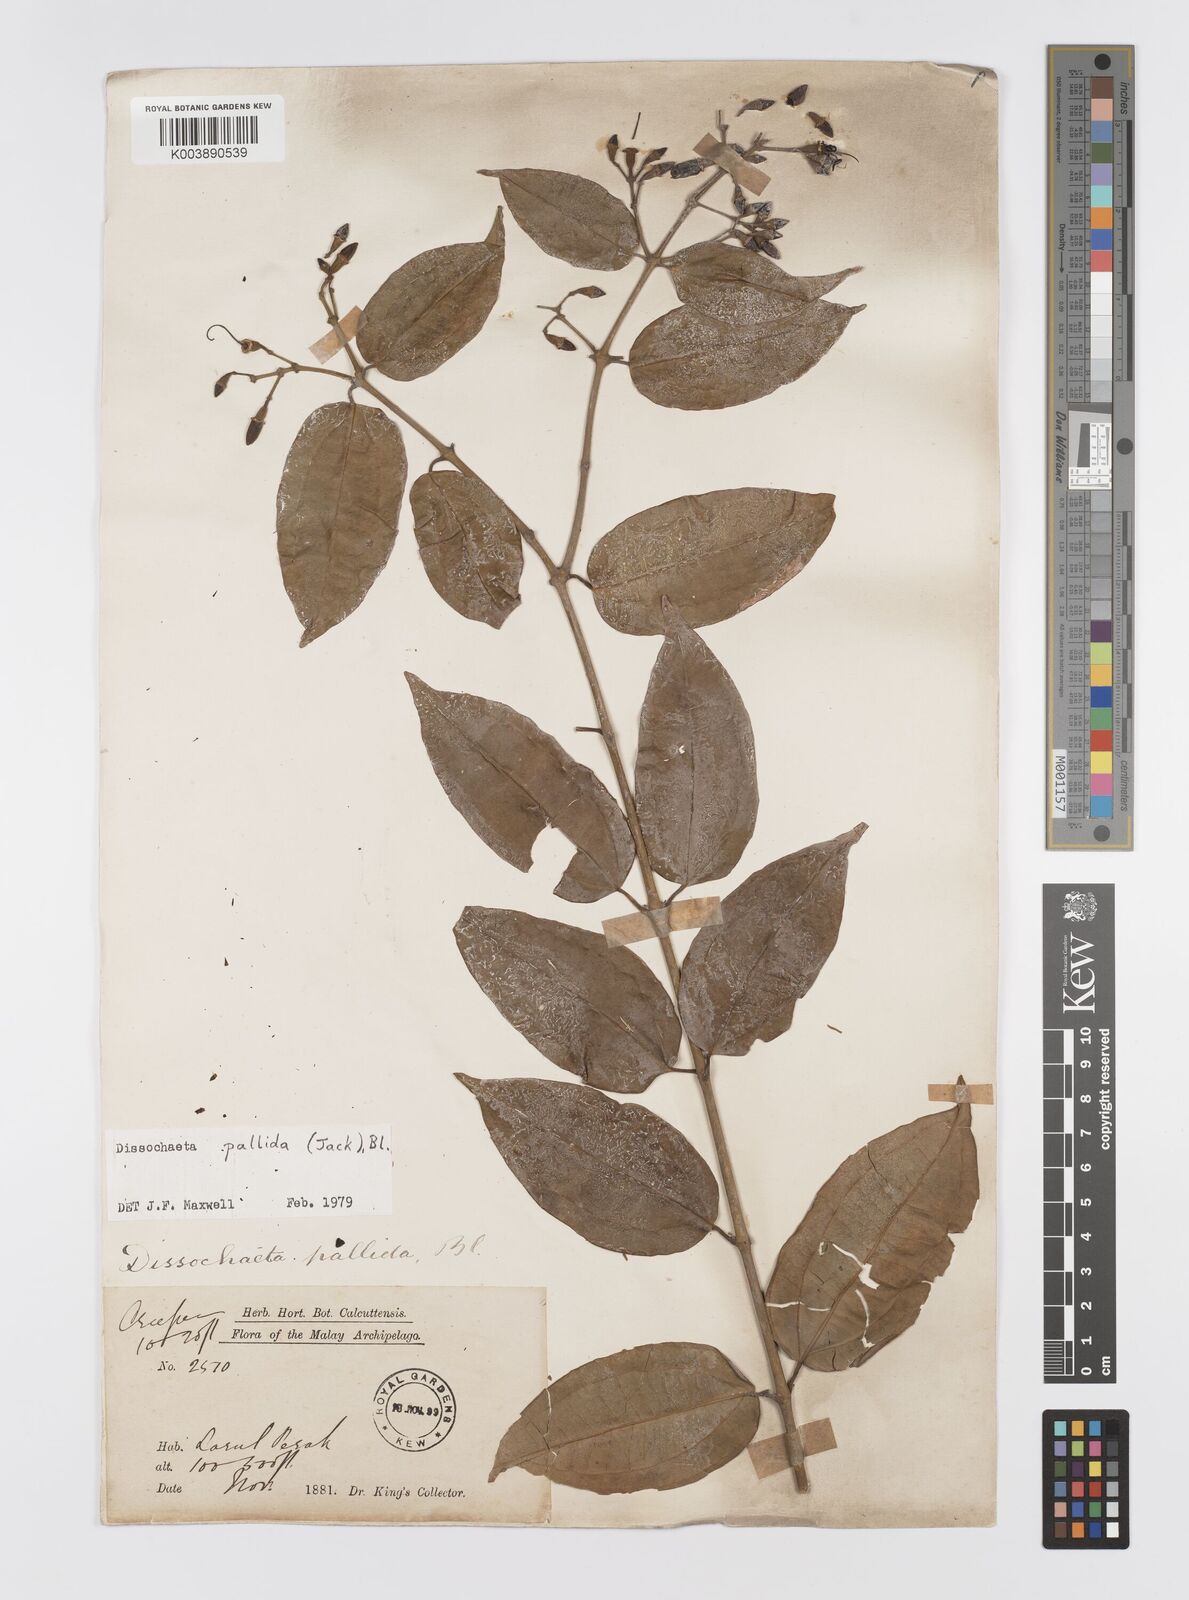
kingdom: Plantae
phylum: Tracheophyta
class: Magnoliopsida
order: Myrtales
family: Melastomataceae
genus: Dissochaeta
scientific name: Dissochaeta pallida
